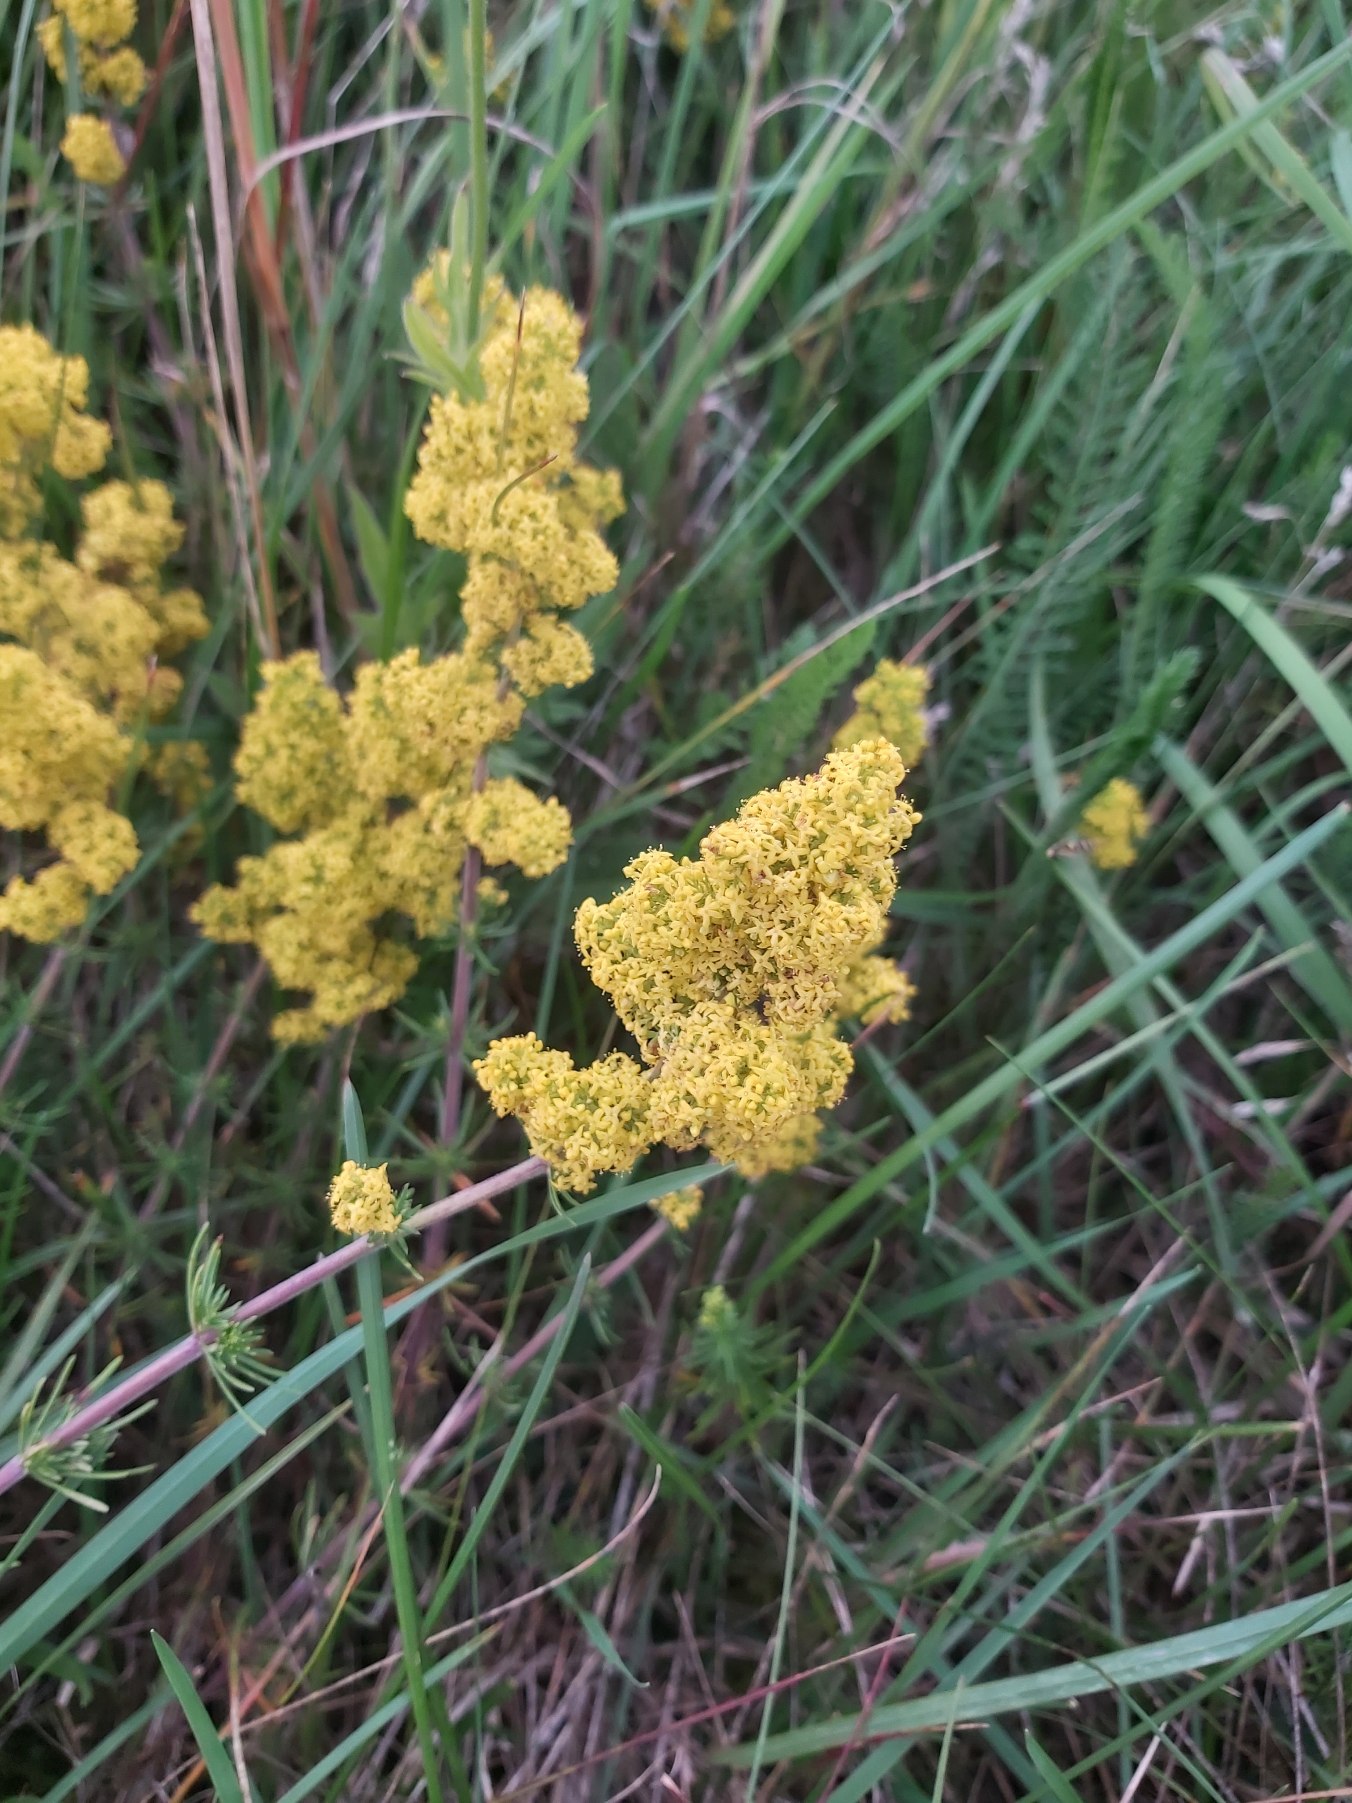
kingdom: Plantae
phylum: Tracheophyta
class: Magnoliopsida
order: Gentianales
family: Rubiaceae
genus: Galium
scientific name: Galium verum
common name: Gul snerre
